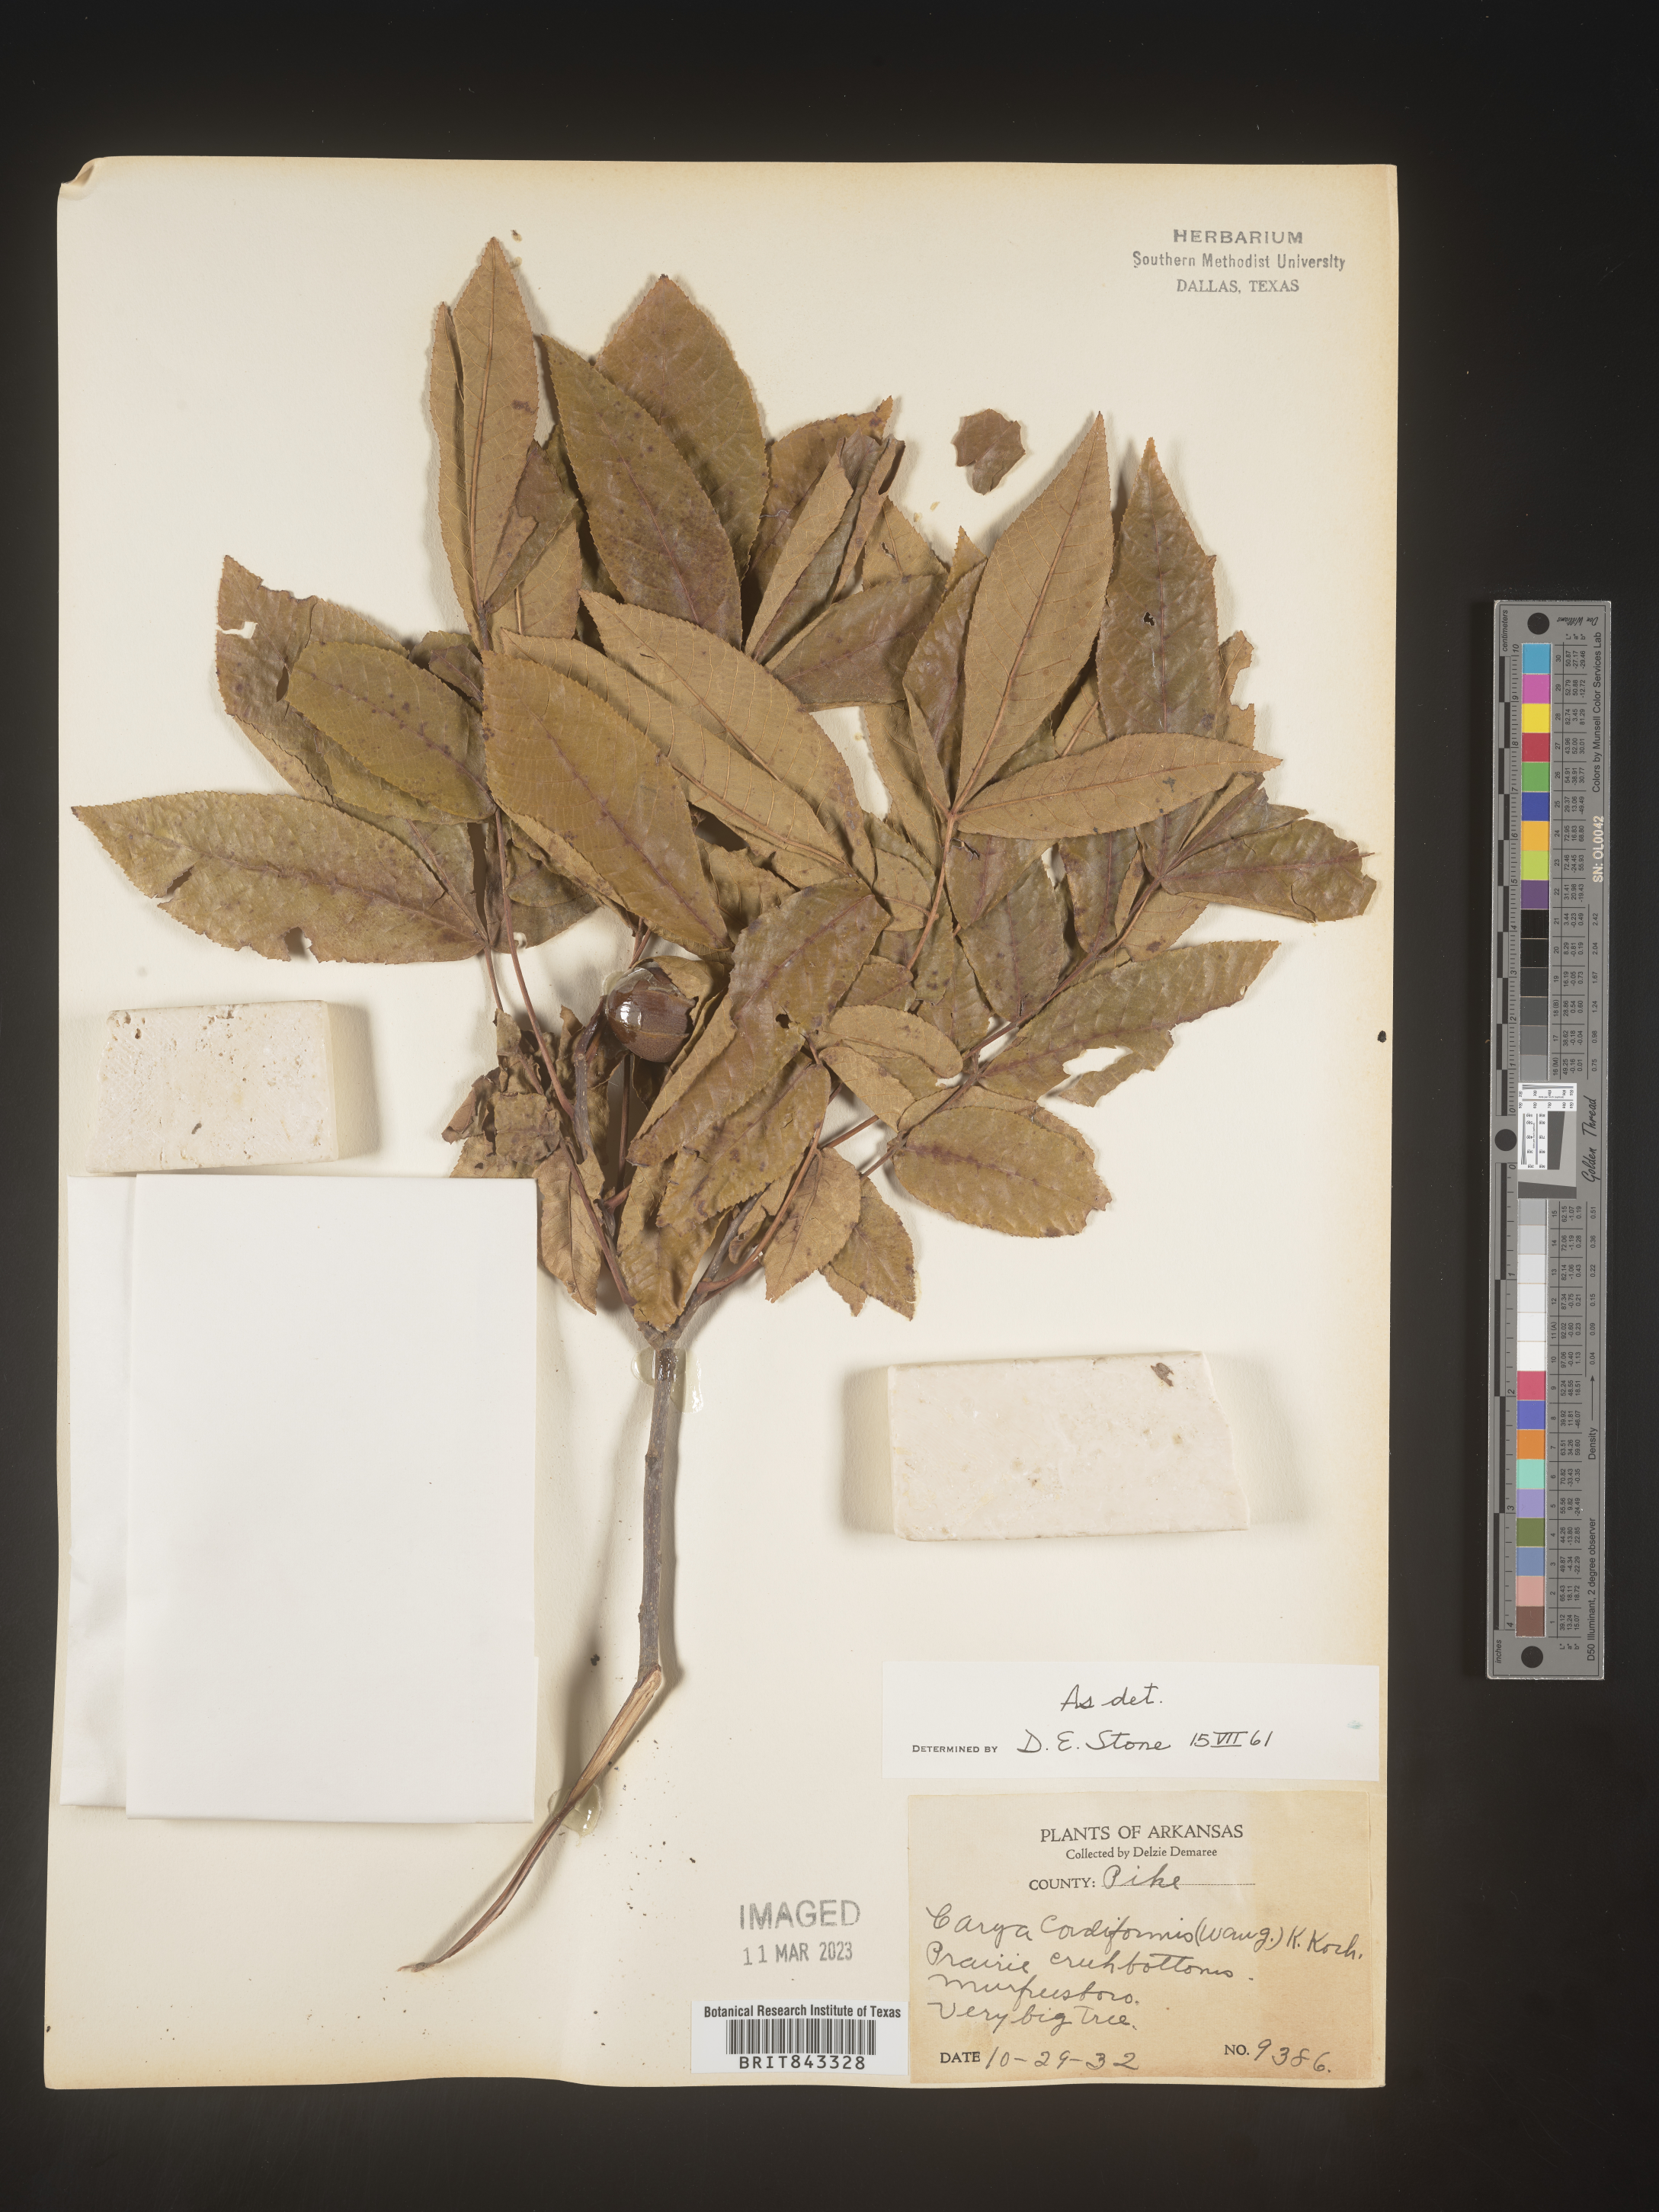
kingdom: Plantae
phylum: Tracheophyta
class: Magnoliopsida
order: Fagales
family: Juglandaceae
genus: Carya
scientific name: Carya cordiformis
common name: Bitternut hickory
